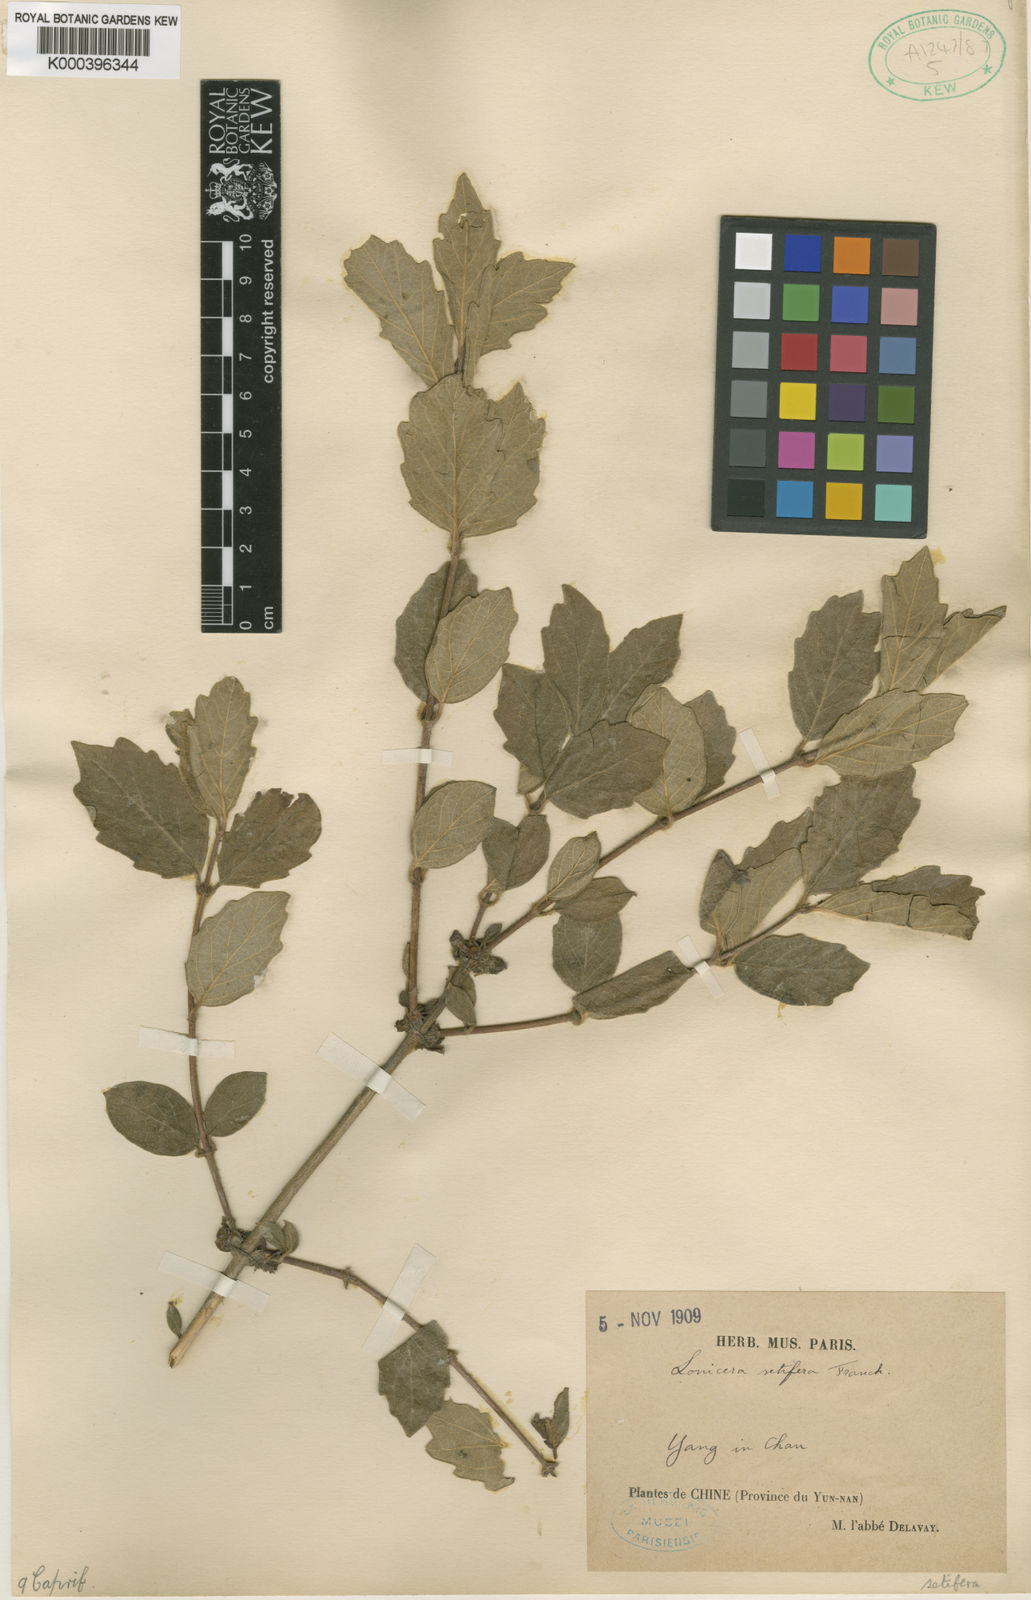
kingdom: Plantae
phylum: Tracheophyta
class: Magnoliopsida
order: Dipsacales
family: Caprifoliaceae
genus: Lonicera
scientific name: Lonicera setifera
